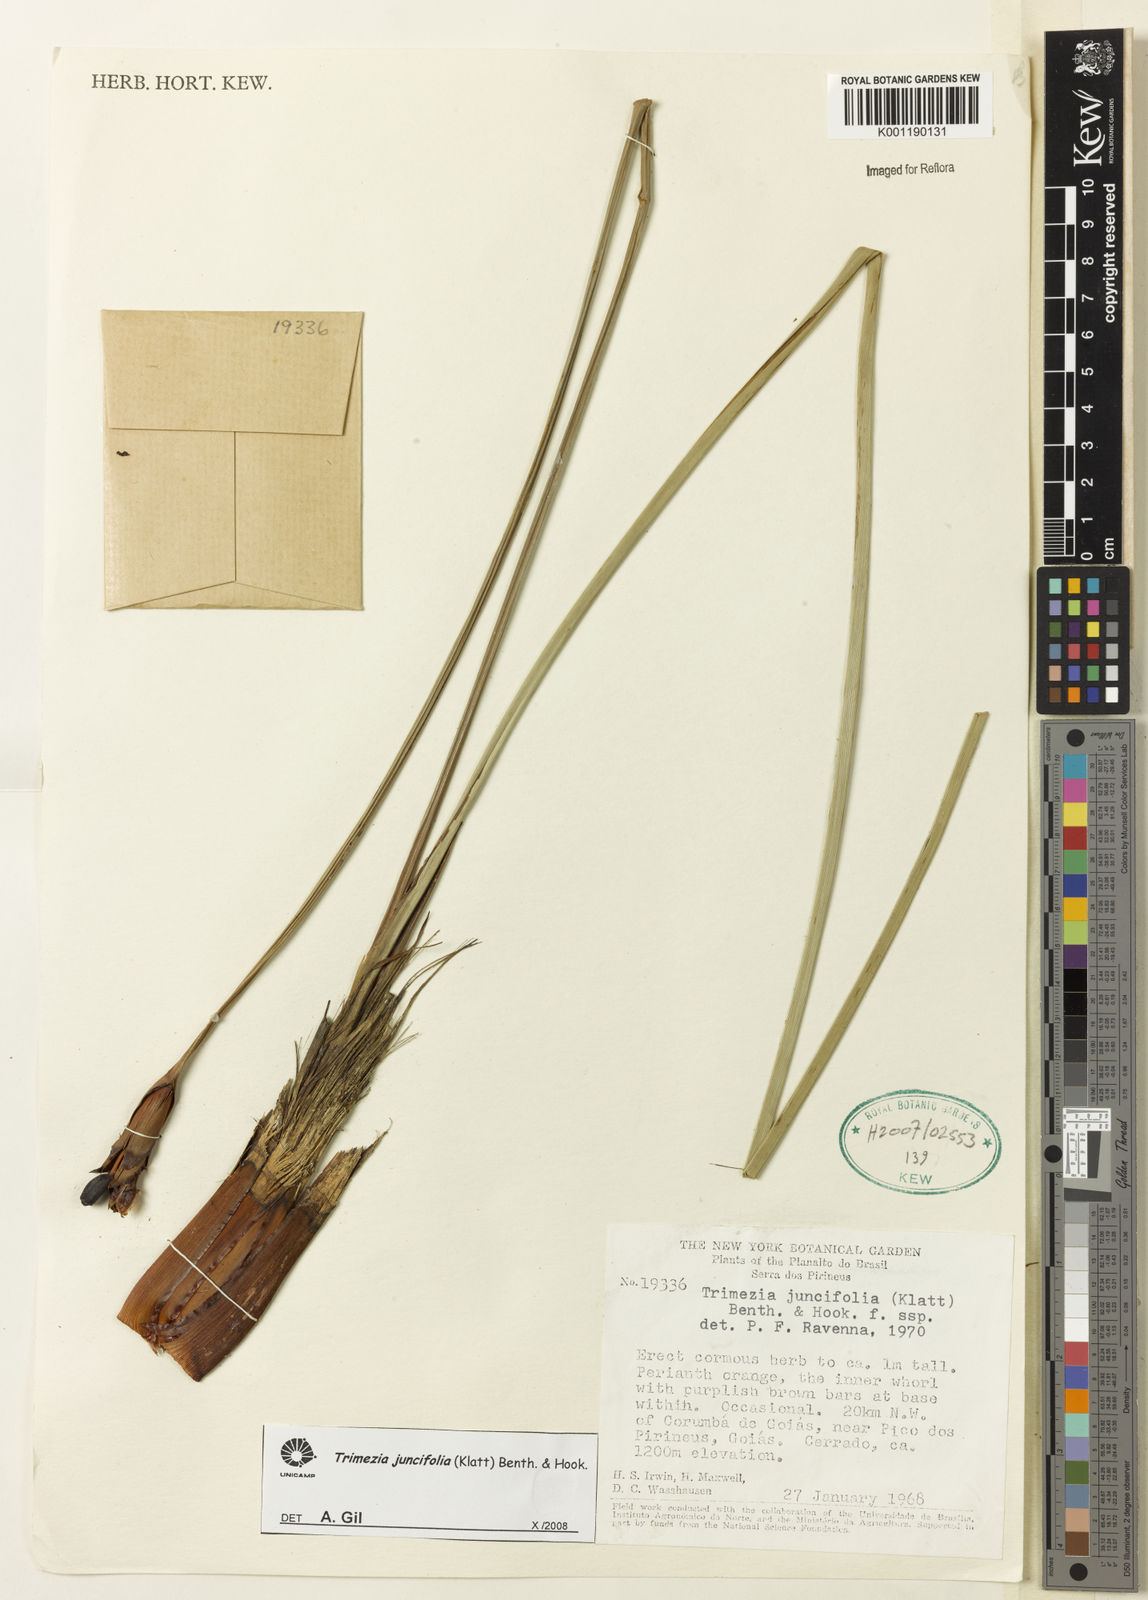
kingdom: Plantae
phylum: Tracheophyta
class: Liliopsida
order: Asparagales
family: Iridaceae
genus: Trimezia
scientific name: Trimezia juncifolia
